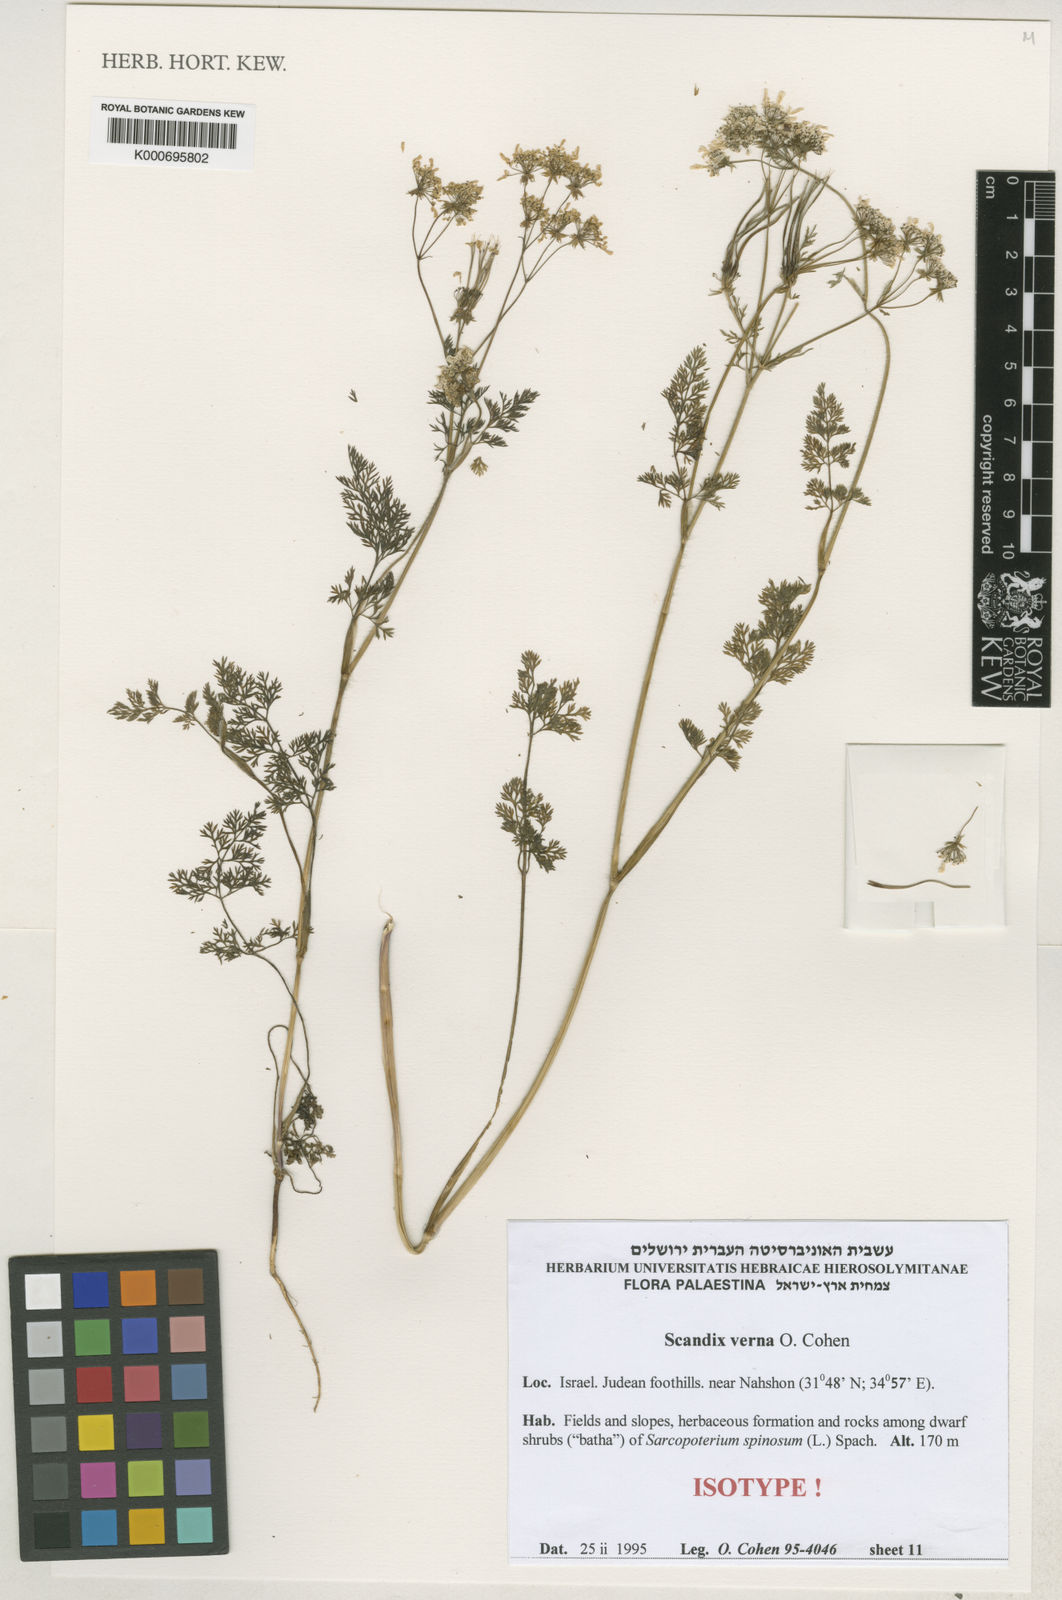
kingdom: Plantae
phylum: Tracheophyta
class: Magnoliopsida
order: Apiales
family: Apiaceae
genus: Scandix
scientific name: Scandix verna
